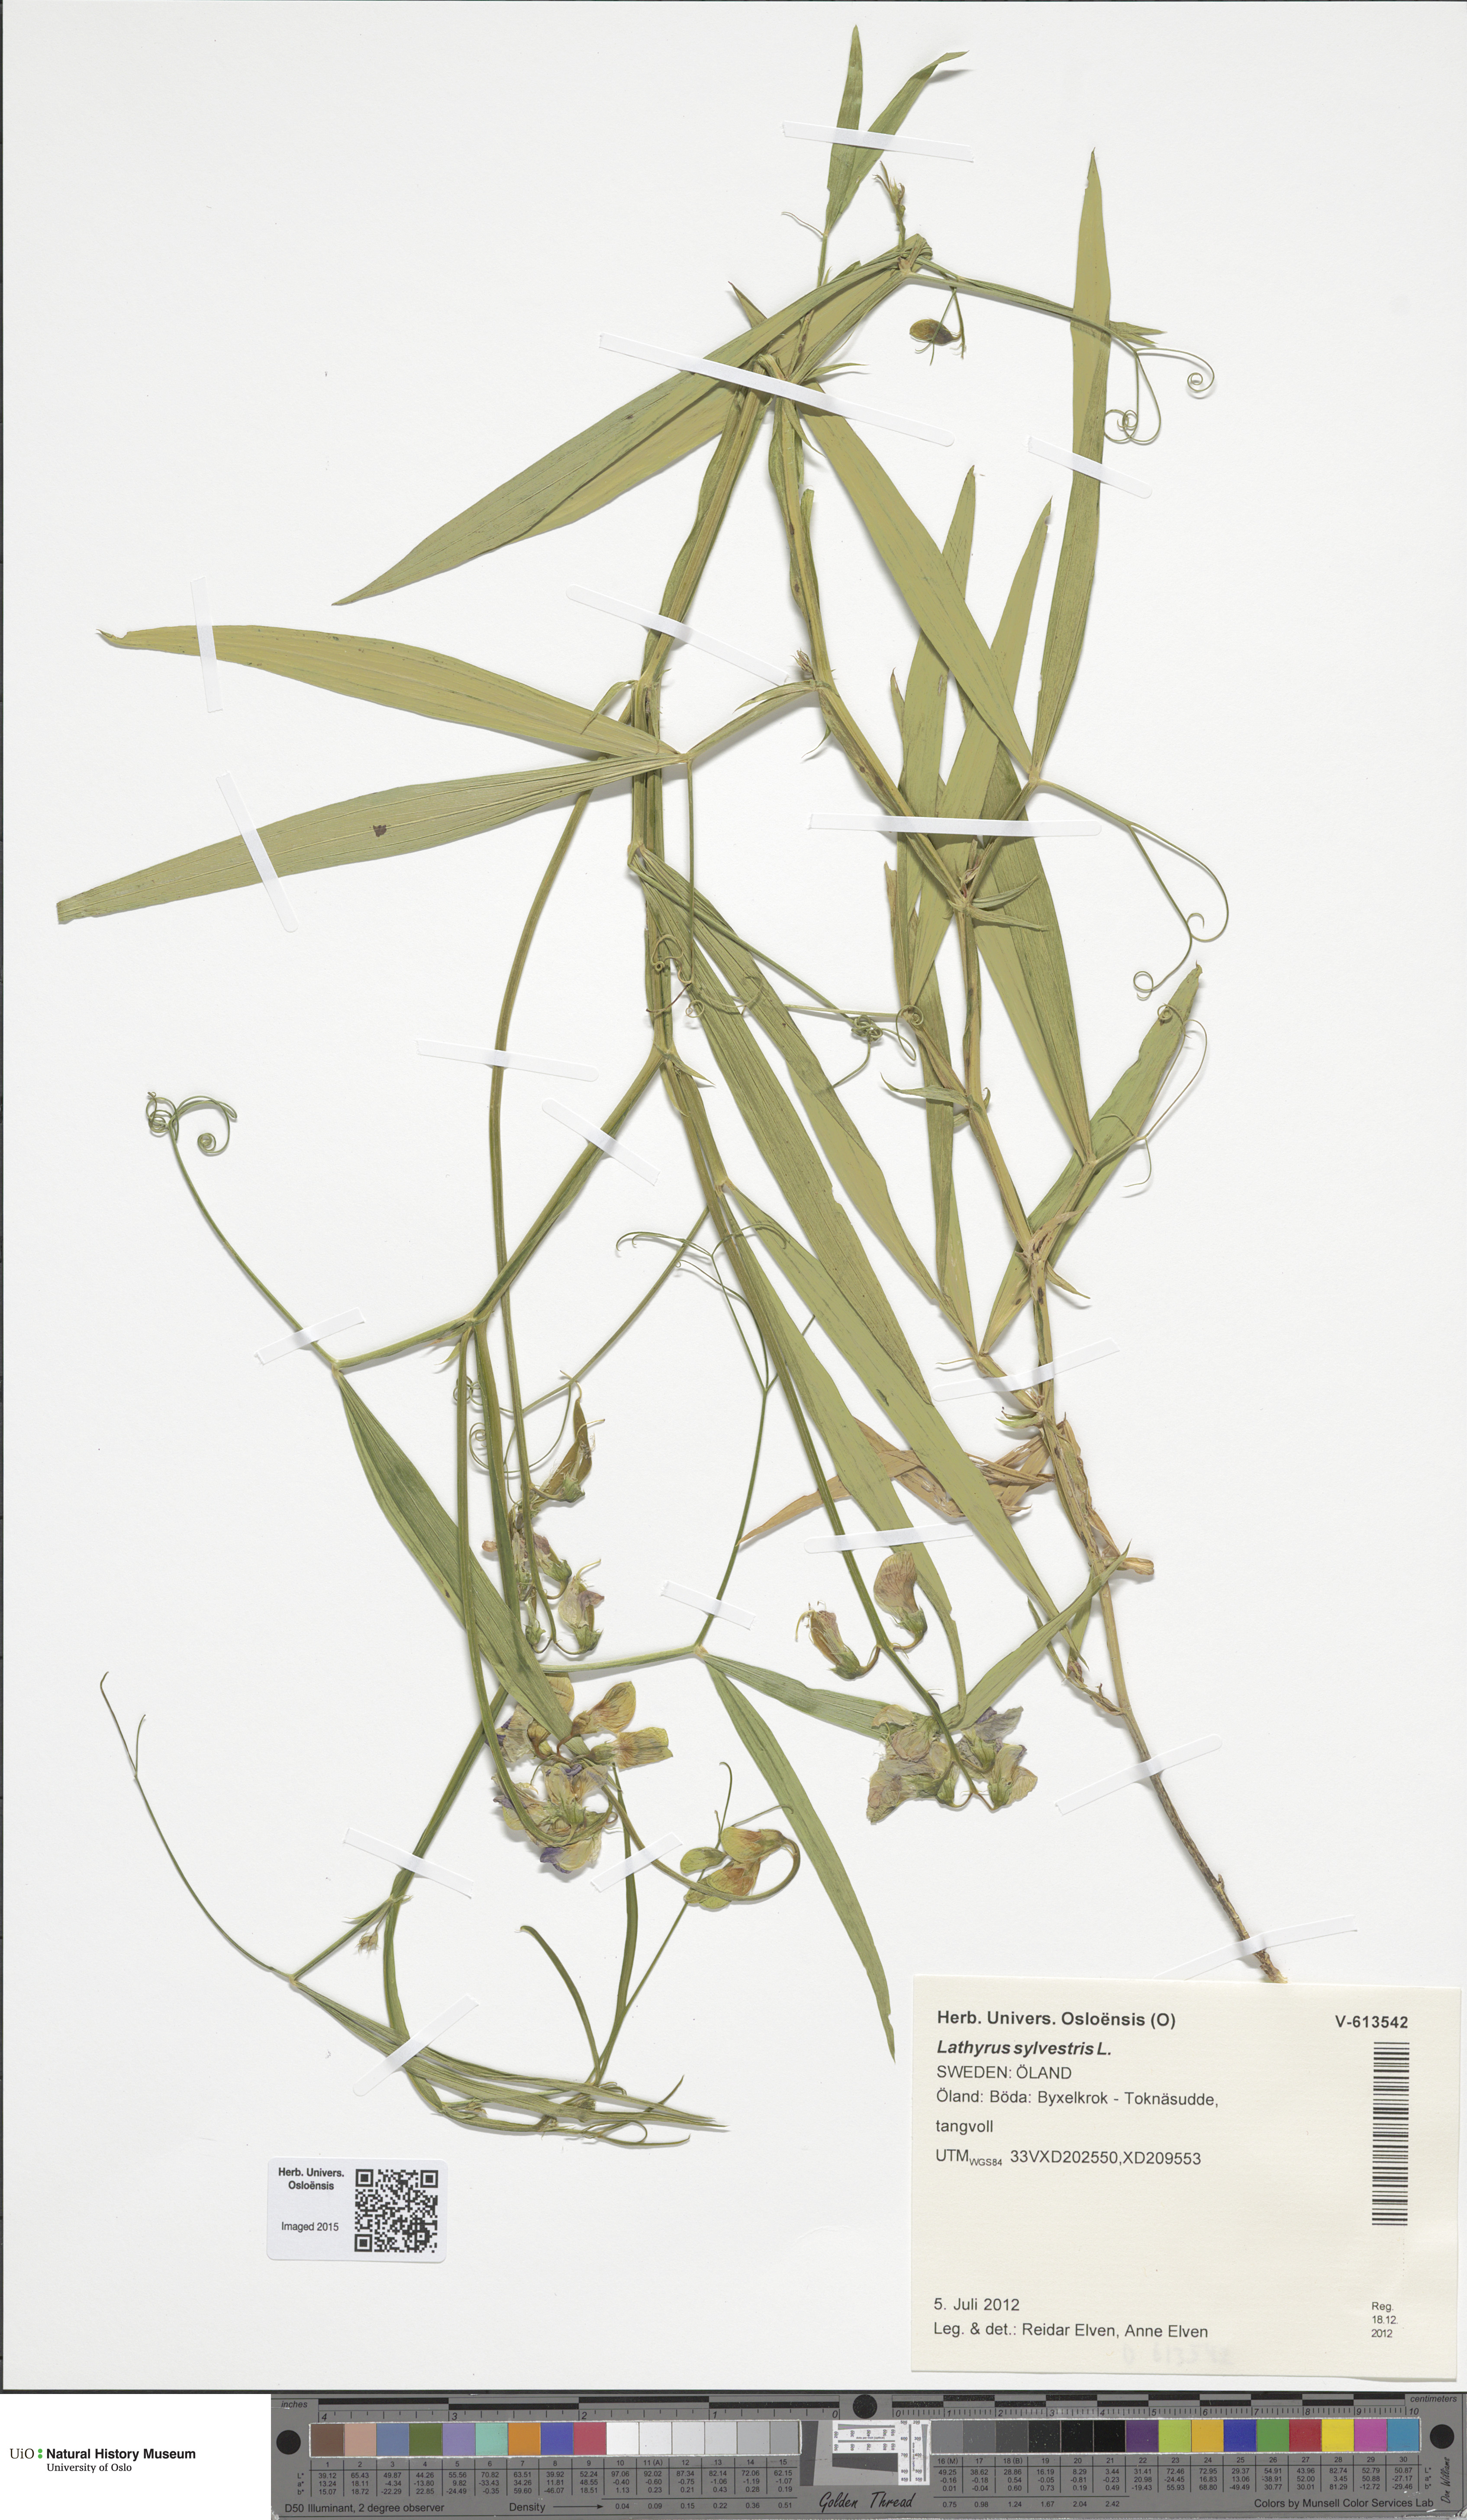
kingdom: Plantae
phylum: Tracheophyta
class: Magnoliopsida
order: Fabales
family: Fabaceae
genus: Lathyrus
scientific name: Lathyrus sylvestris
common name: Flat pea
